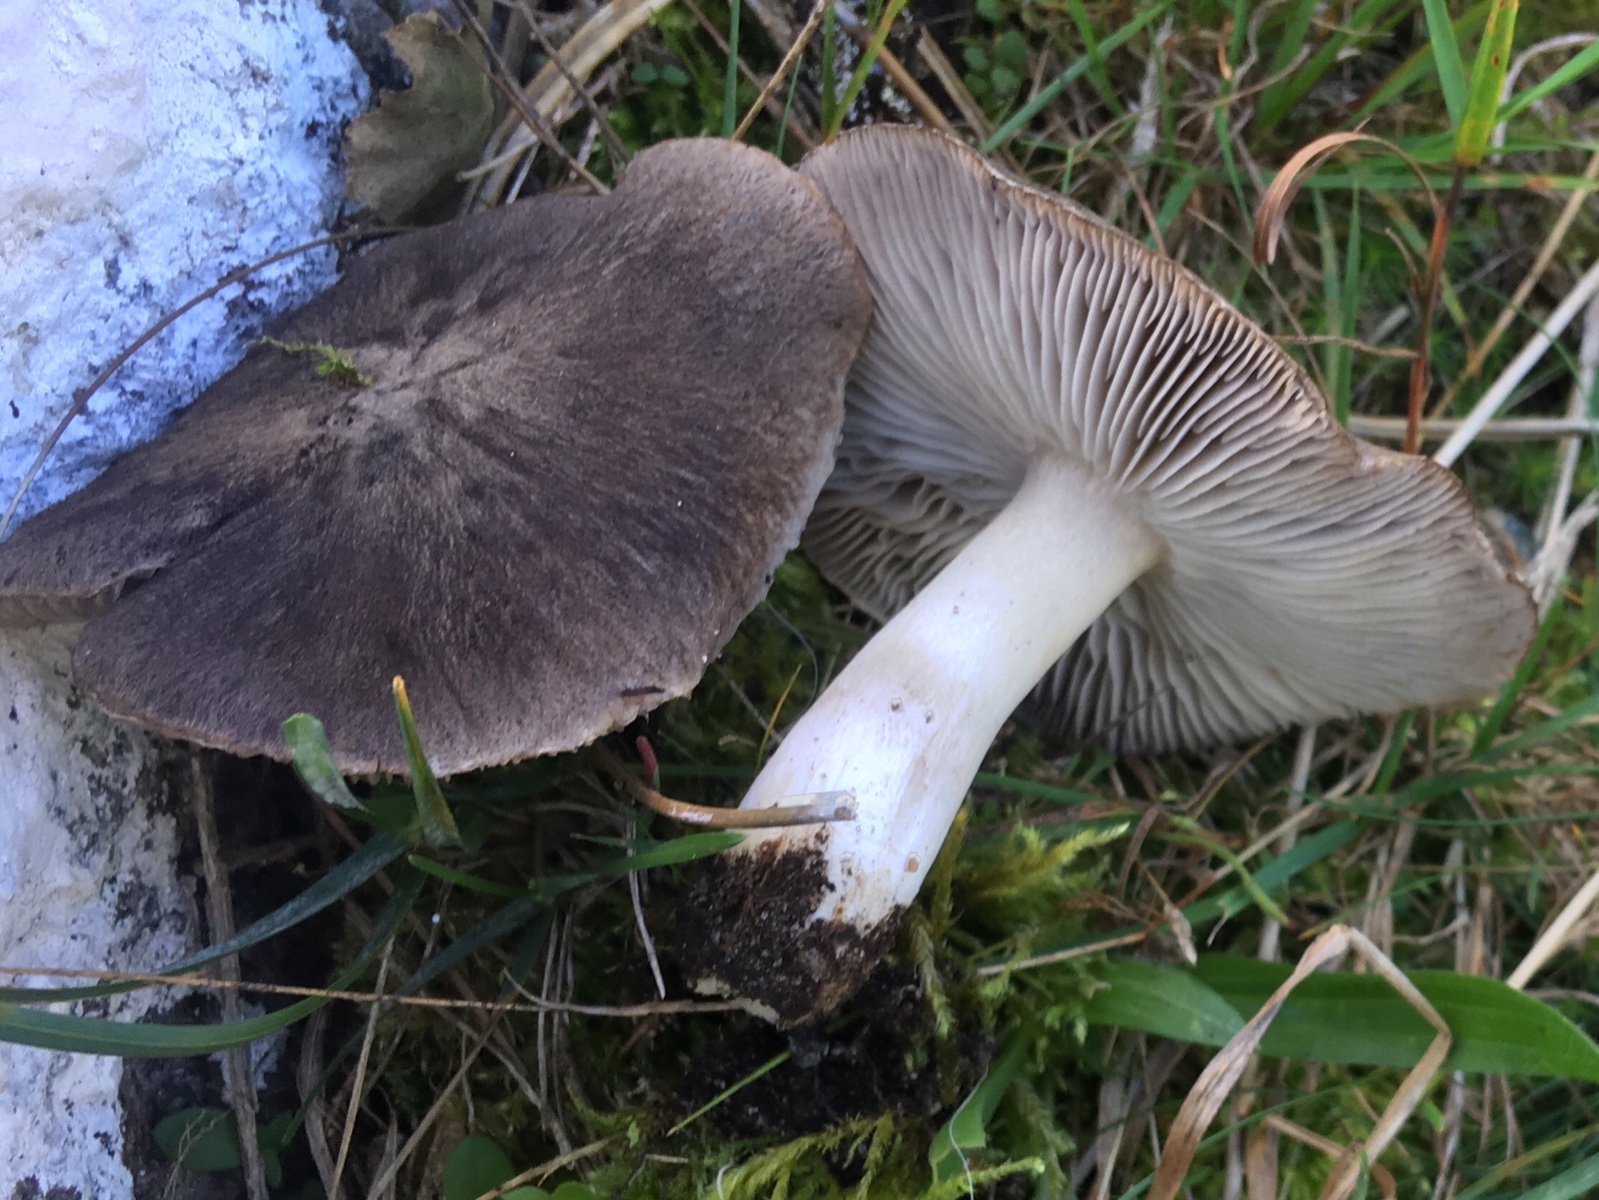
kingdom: Fungi
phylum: Basidiomycota
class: Agaricomycetes
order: Agaricales
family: Tricholomataceae
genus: Tricholoma
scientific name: Tricholoma terreum
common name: jordfarvet ridderhat
